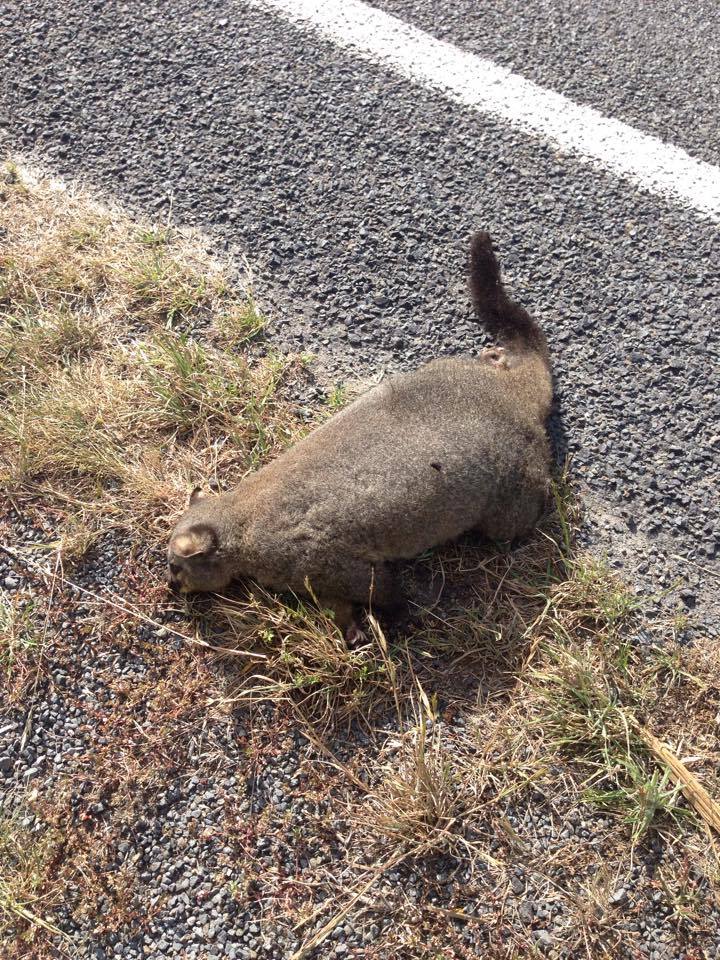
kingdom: Animalia
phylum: Chordata
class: Mammalia
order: Diprotodontia
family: Phalangeridae
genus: Trichosurus
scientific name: Trichosurus vulpecula
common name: Common brushtail
